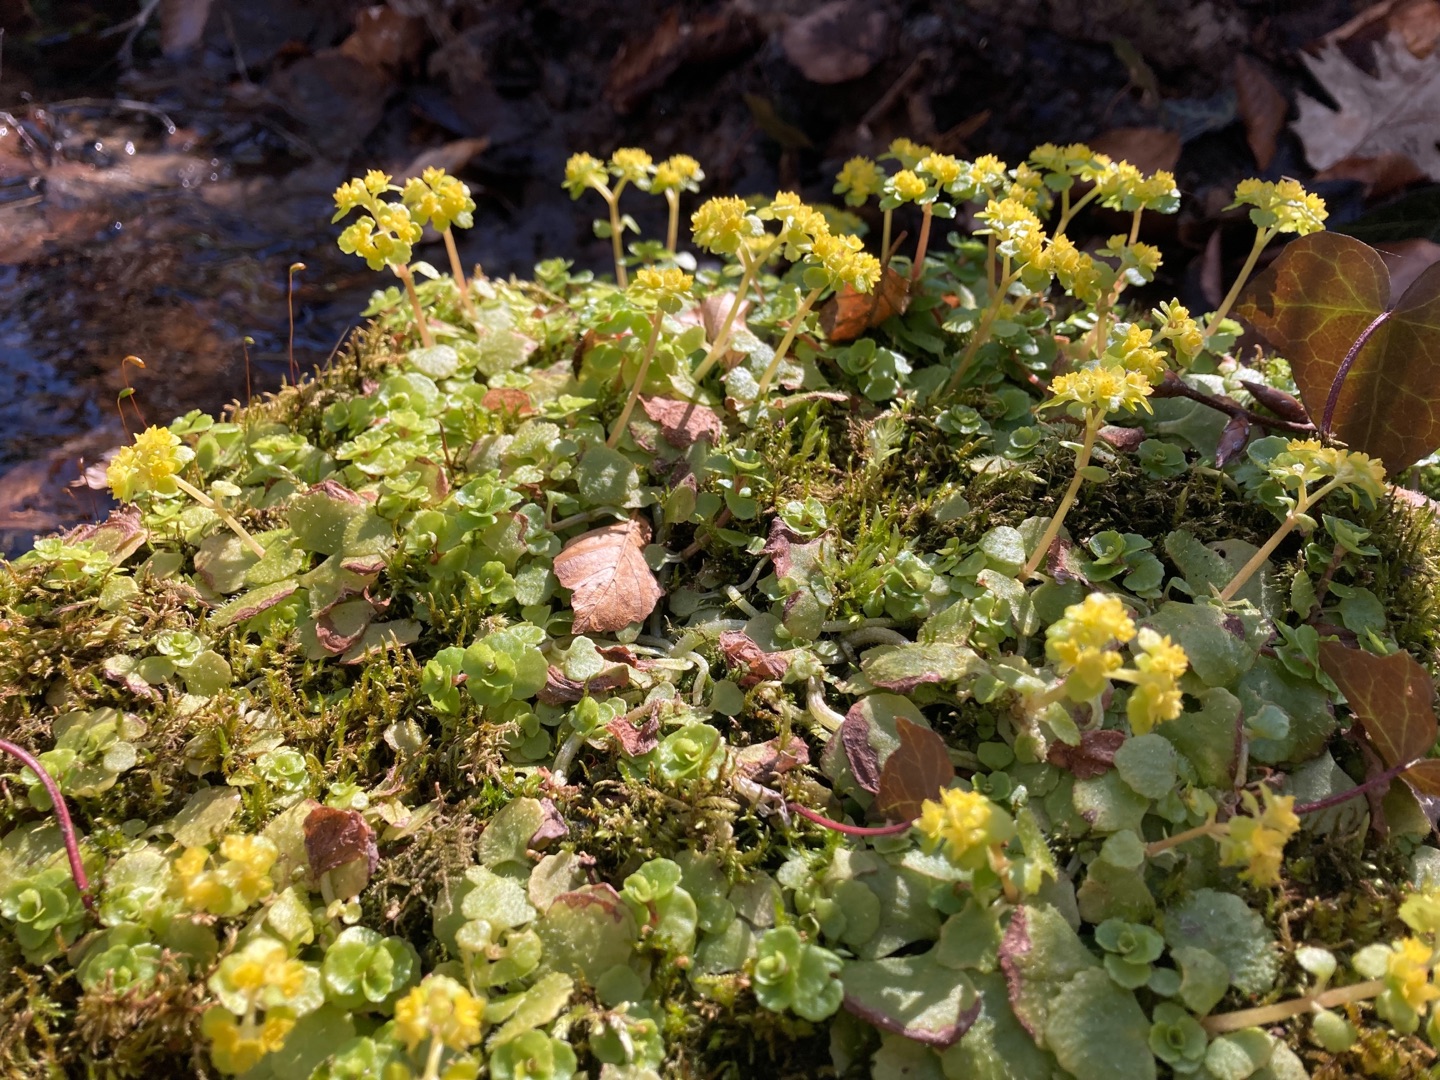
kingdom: Plantae
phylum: Tracheophyta
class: Magnoliopsida
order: Saxifragales
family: Saxifragaceae
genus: Chrysosplenium
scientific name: Chrysosplenium oppositifolium
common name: Småbladet milturt
